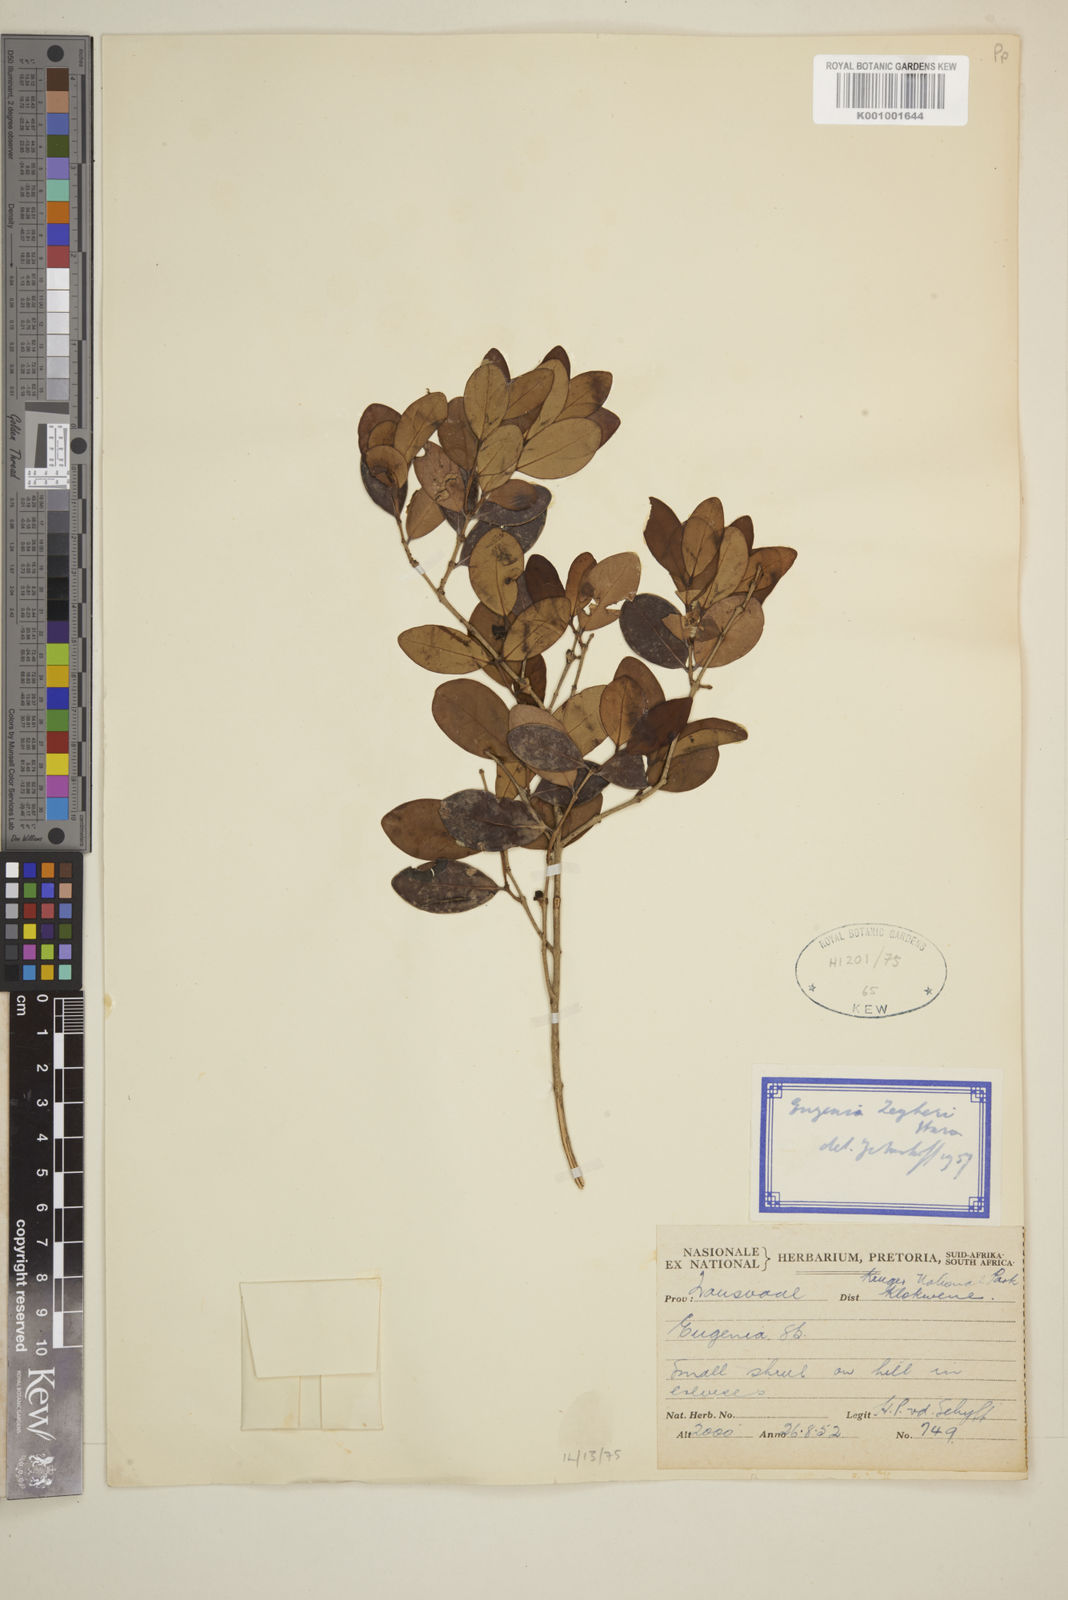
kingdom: Plantae
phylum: Tracheophyta
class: Magnoliopsida
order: Myrtales
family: Myrtaceae
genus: Eugenia
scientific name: Eugenia zeyheri
